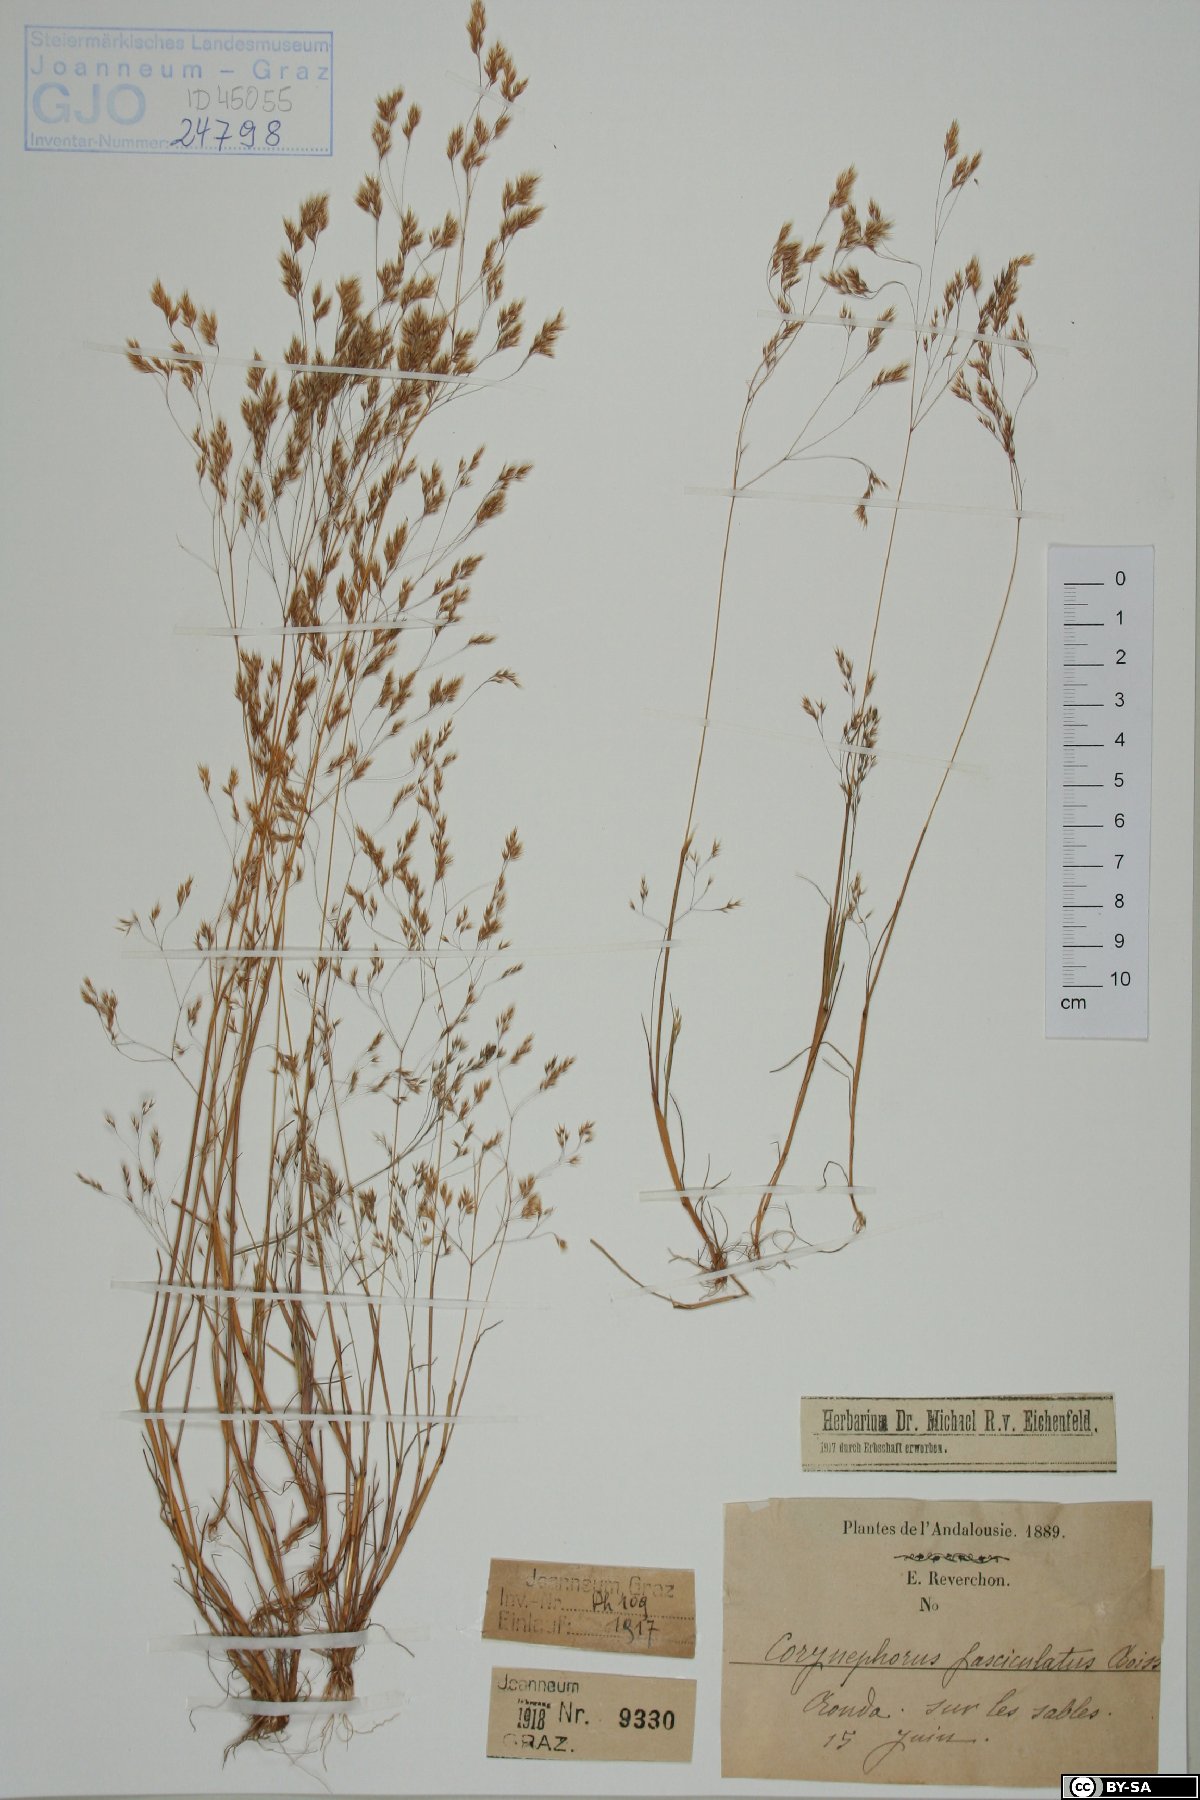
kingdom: Plantae
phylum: Tracheophyta
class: Liliopsida
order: Poales
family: Poaceae
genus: Corynephorus
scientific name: Corynephorus fasciculatus
